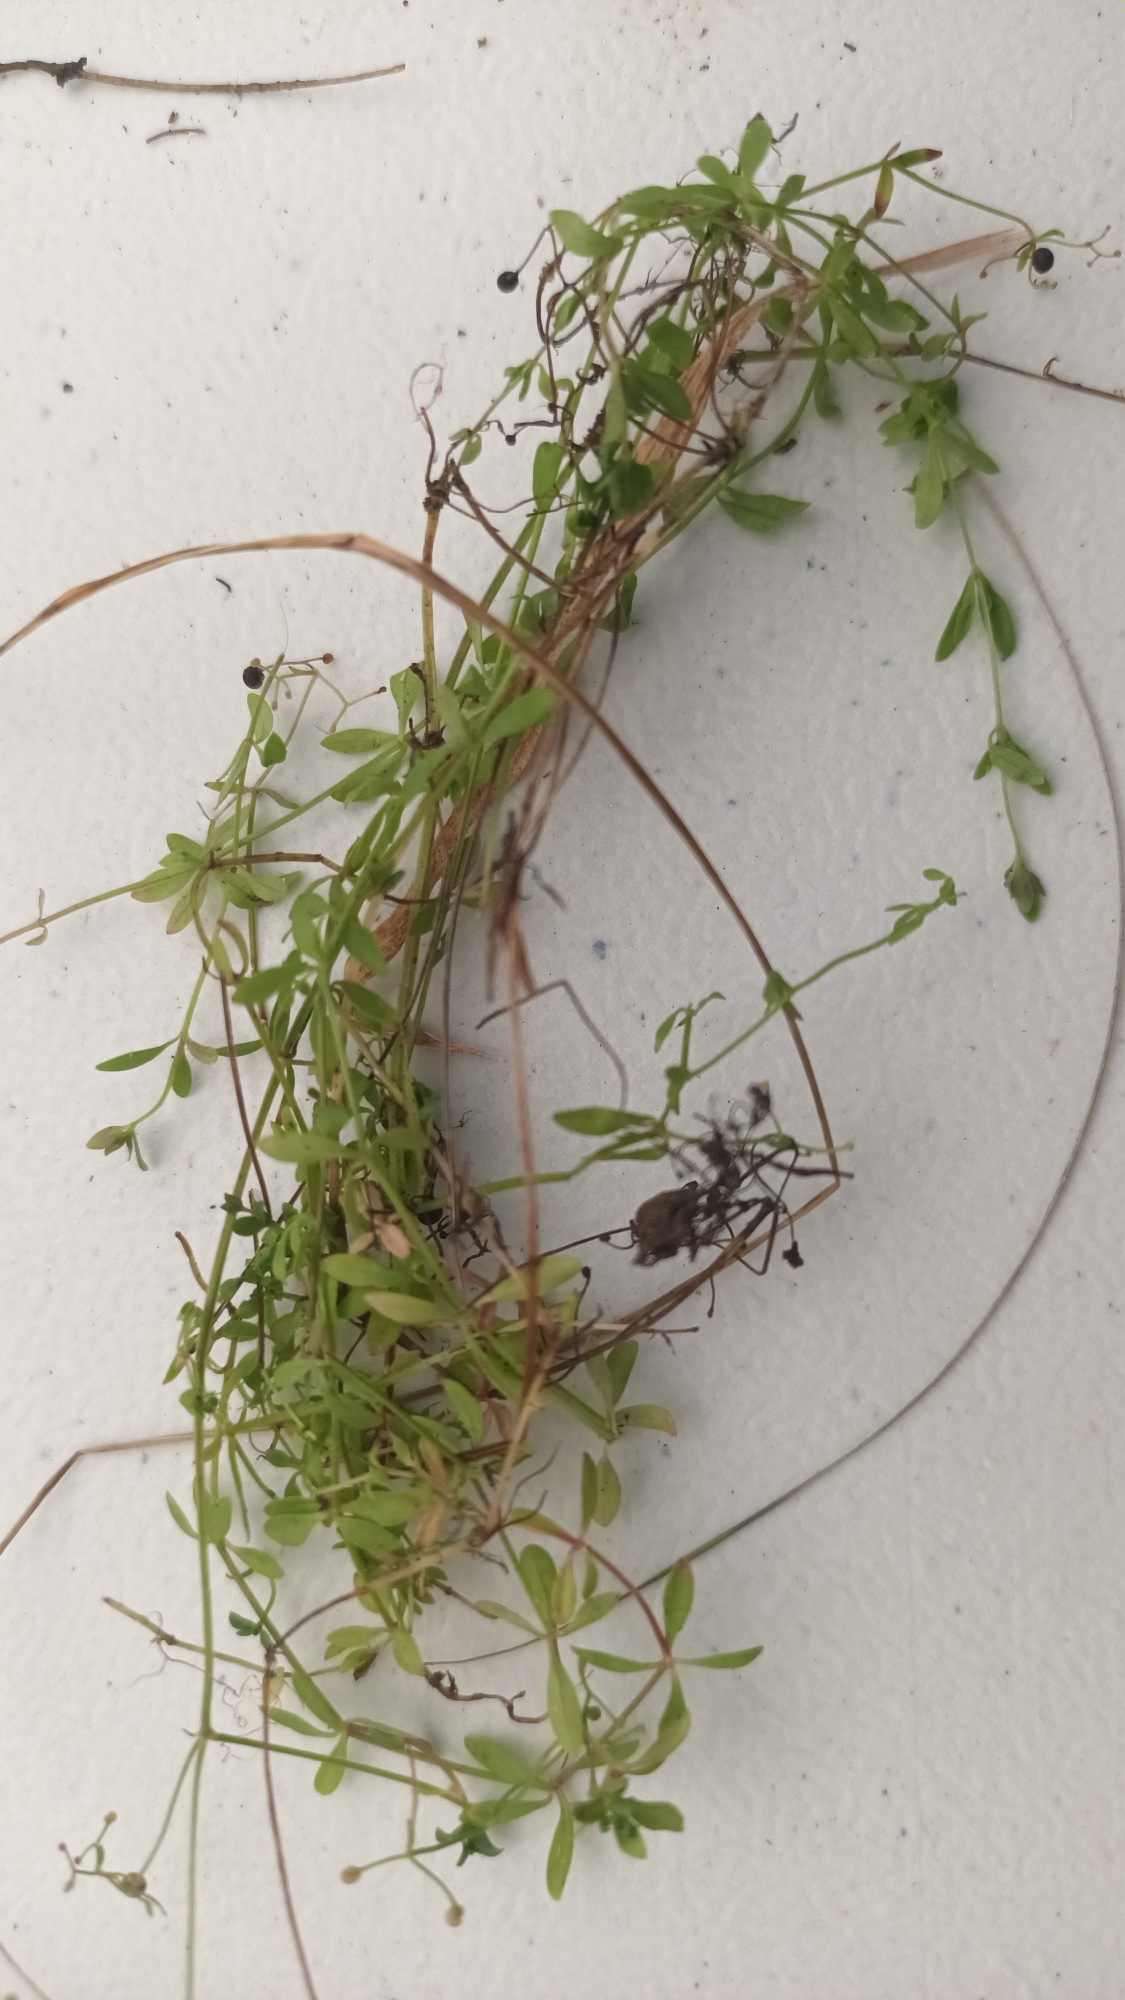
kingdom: Plantae
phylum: Tracheophyta
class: Magnoliopsida
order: Gentianales
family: Rubiaceae
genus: Galium
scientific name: Galium palustre
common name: Kær-snerre
